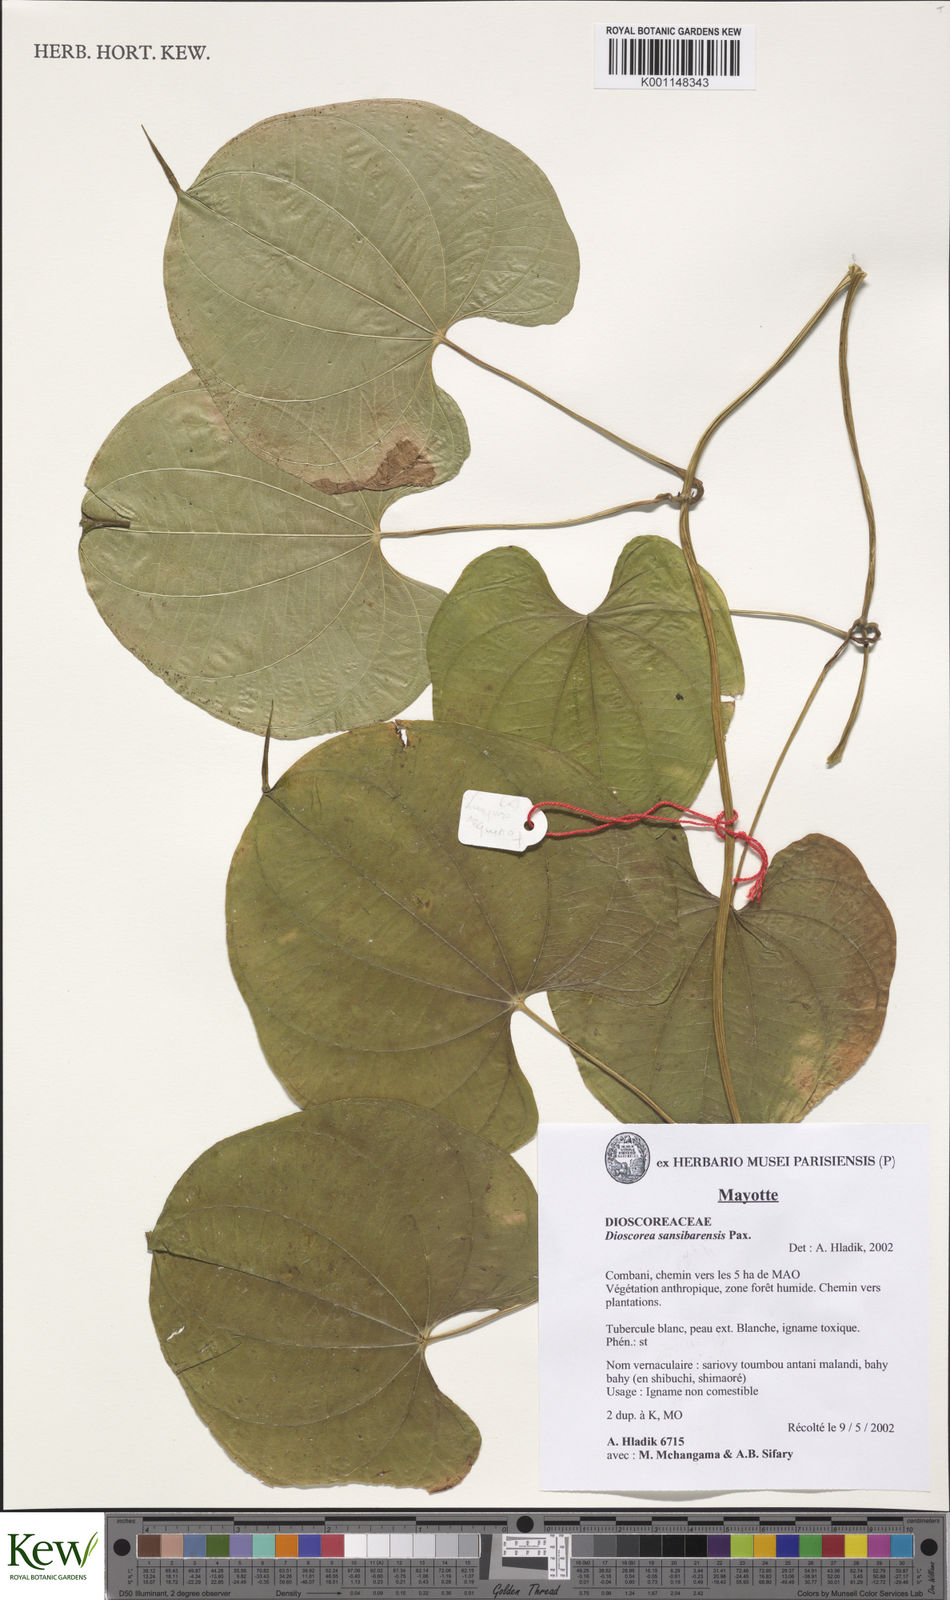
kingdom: Plantae
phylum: Tracheophyta
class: Liliopsida
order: Dioscoreales
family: Dioscoreaceae
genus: Dioscorea
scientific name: Dioscorea sansibarensis
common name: Zanzibar yam
